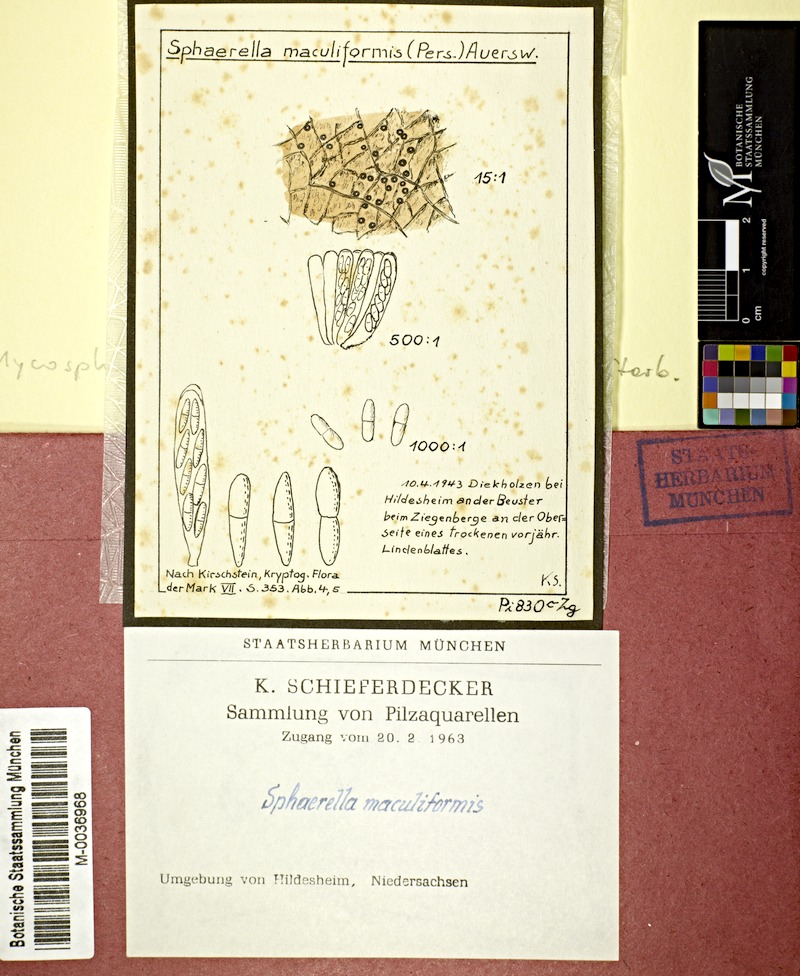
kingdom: Plantae
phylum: Tracheophyta
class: Magnoliopsida
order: Malvales
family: Malvaceae
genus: Tilia
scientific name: Tilia
